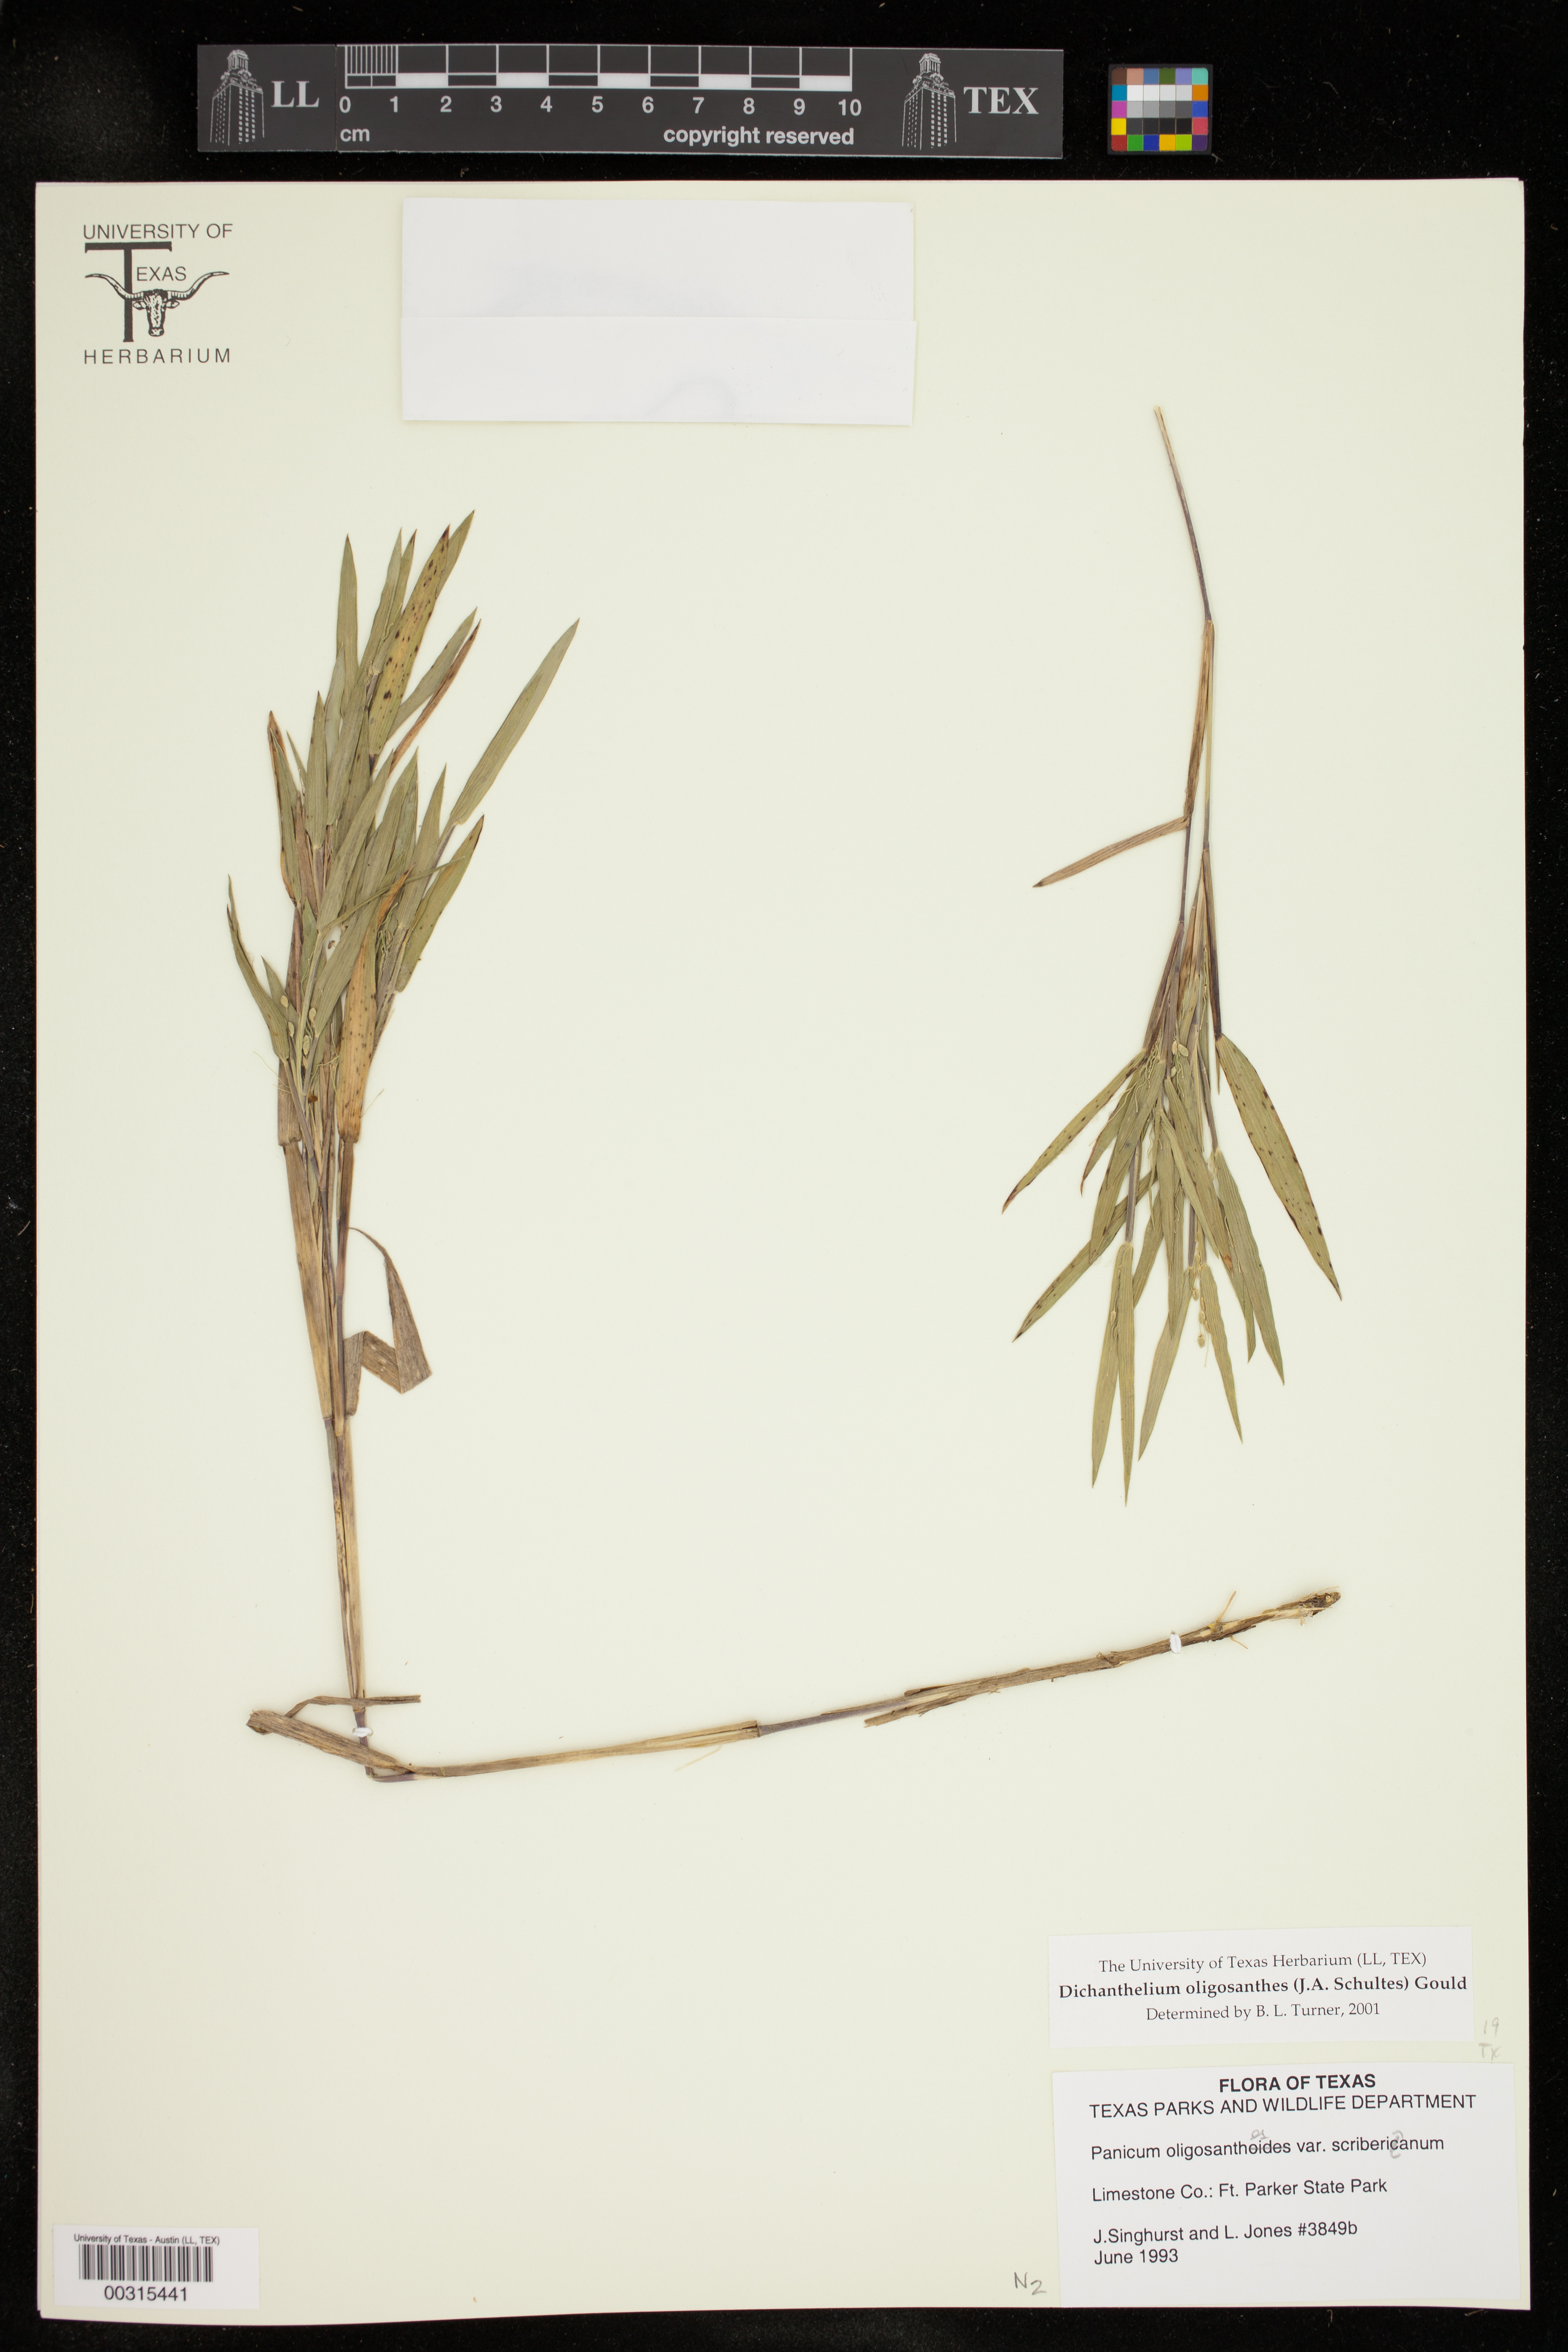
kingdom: Plantae
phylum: Tracheophyta
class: Liliopsida
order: Poales
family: Poaceae
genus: Dichanthelium
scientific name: Dichanthelium oligosanthes
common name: Few-anther obscuregrass
